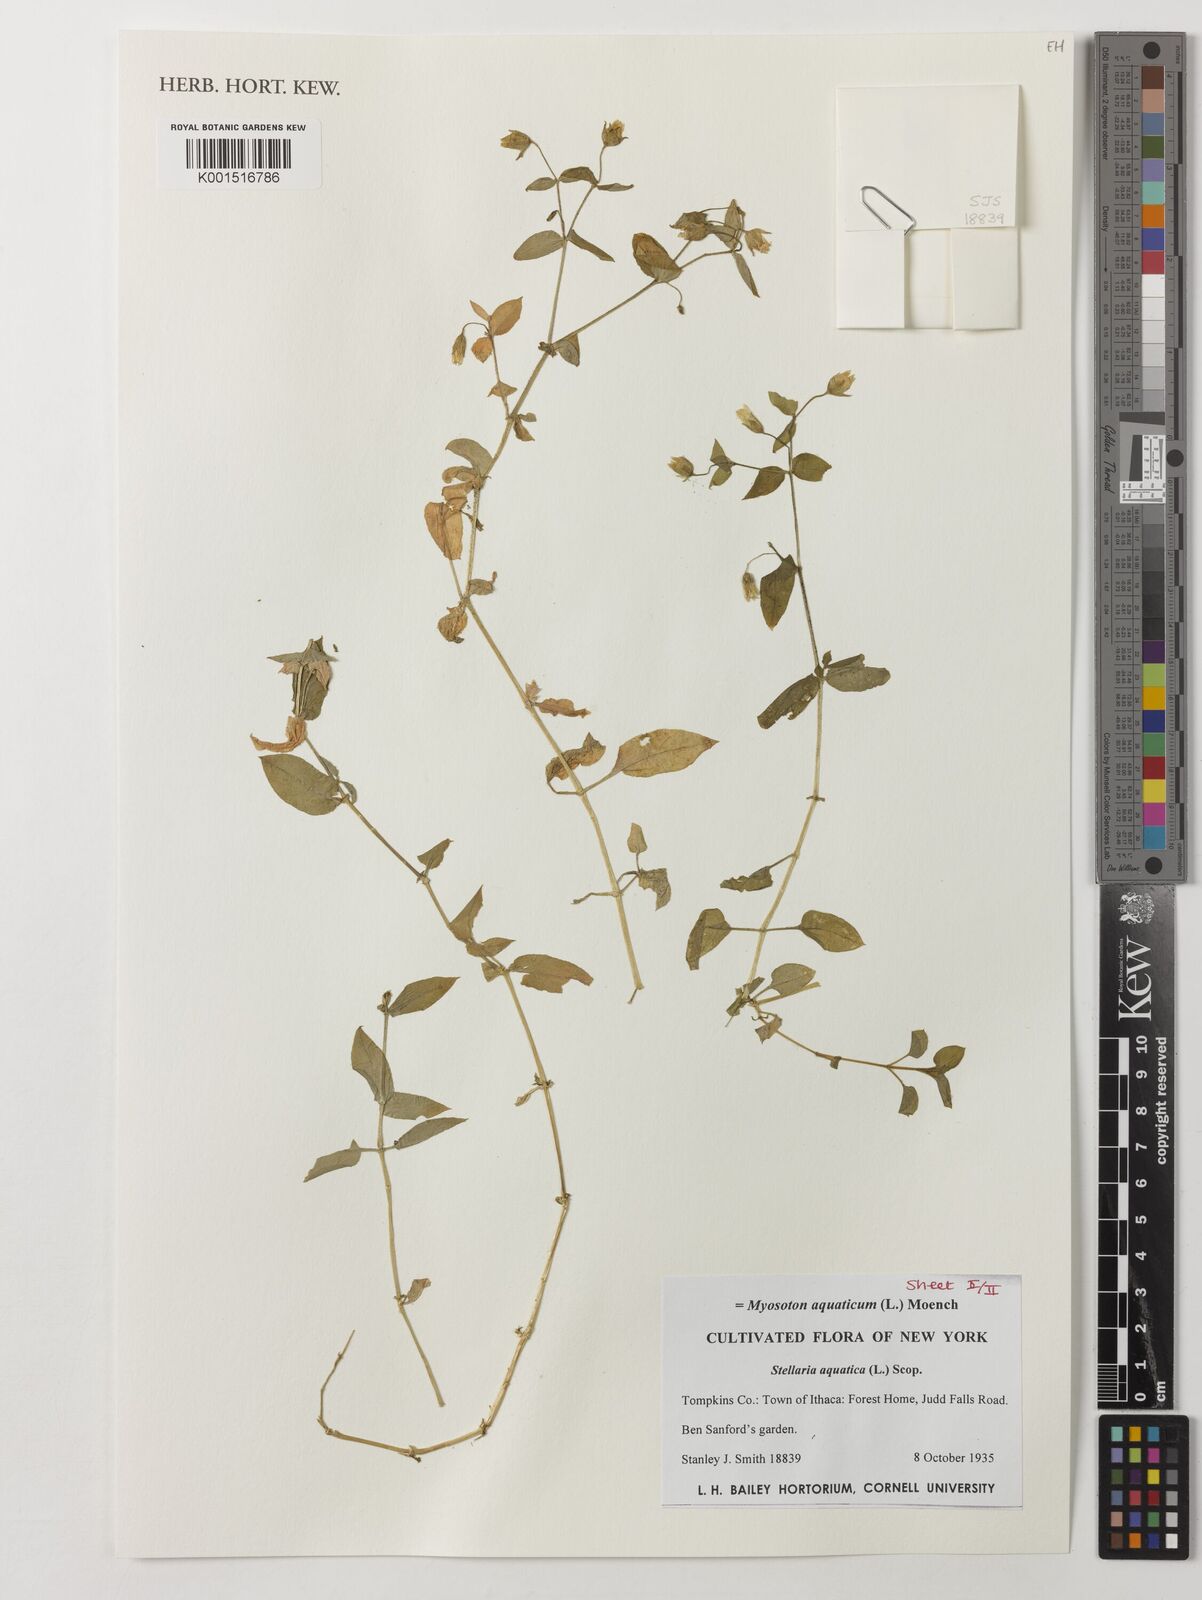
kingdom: Plantae
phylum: Tracheophyta
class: Magnoliopsida
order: Caryophyllales
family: Caryophyllaceae
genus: Stellaria
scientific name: Stellaria aquatica
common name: Water chickweed
